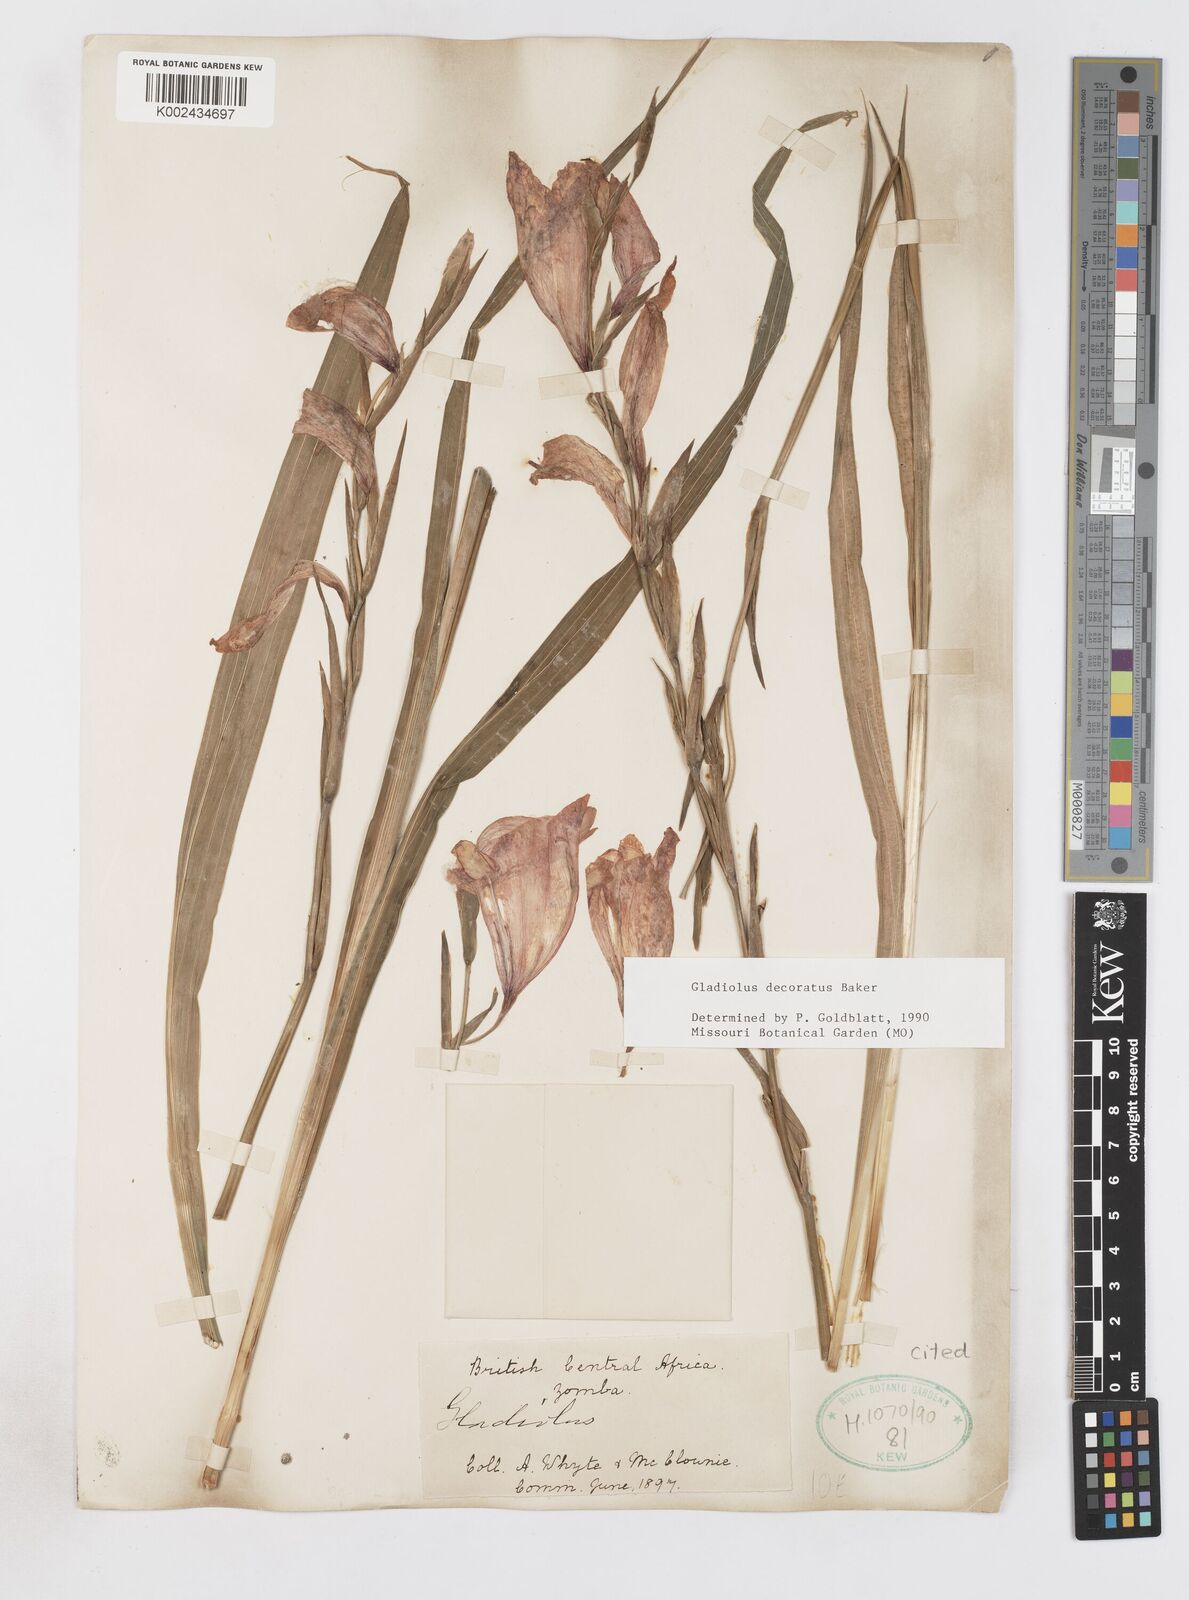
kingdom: Plantae
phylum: Tracheophyta
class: Liliopsida
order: Asparagales
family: Iridaceae
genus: Gladiolus
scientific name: Gladiolus decoratus
